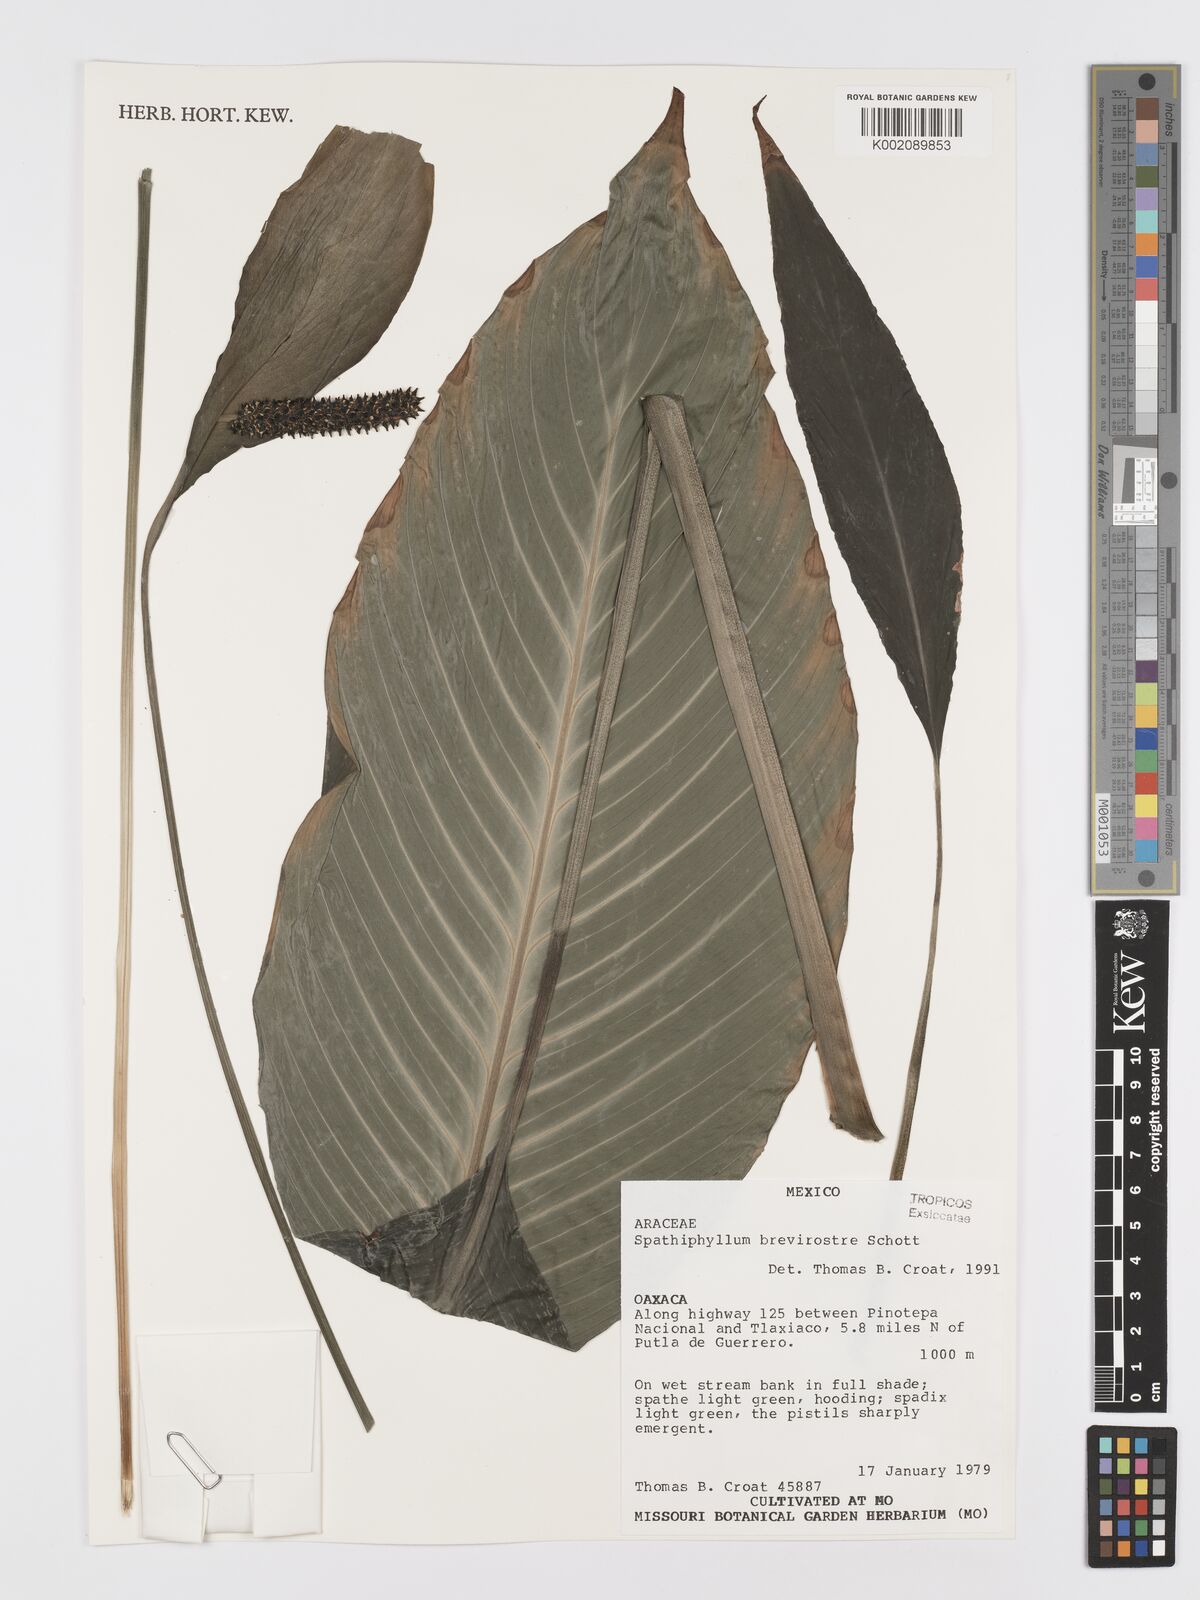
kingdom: Plantae
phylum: Tracheophyta
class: Liliopsida
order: Alismatales
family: Araceae
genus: Spathiphyllum
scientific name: Spathiphyllum brevirostre
